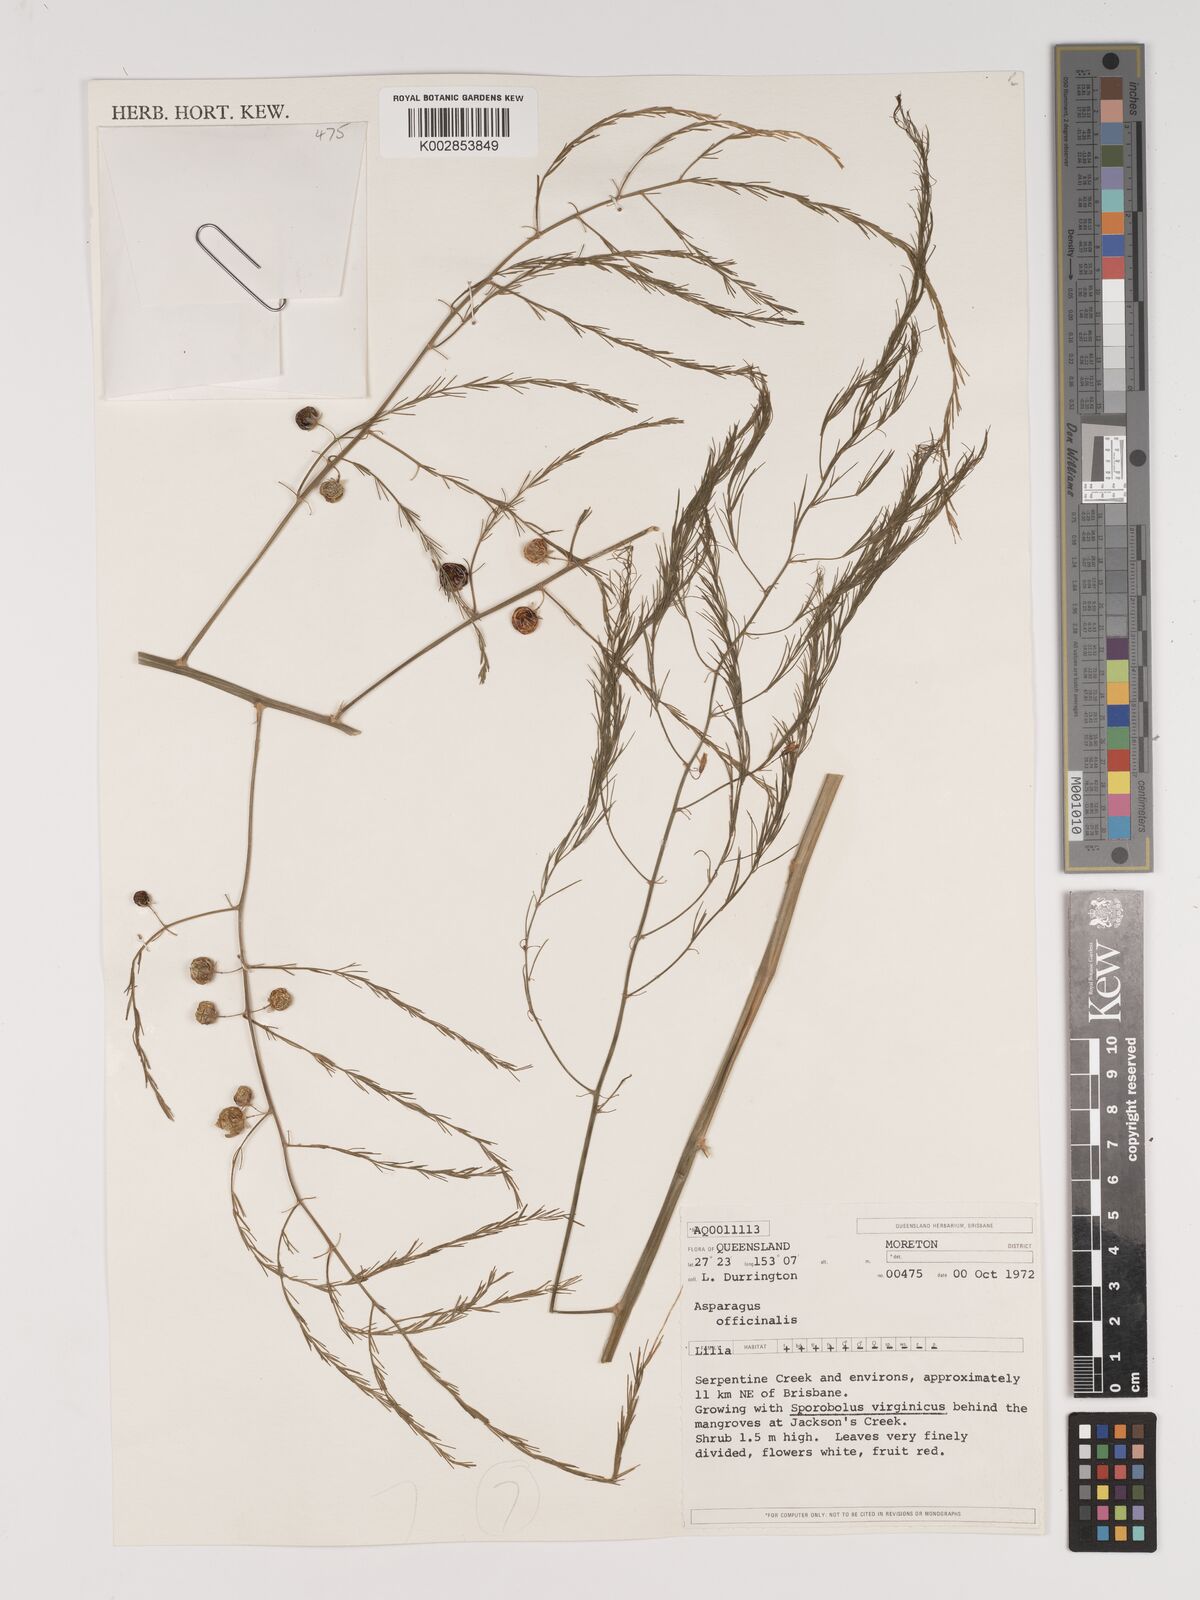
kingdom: Plantae
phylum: Tracheophyta
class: Liliopsida
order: Asparagales
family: Asparagaceae
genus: Asparagus
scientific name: Asparagus officinalis
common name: Garden asparagus
